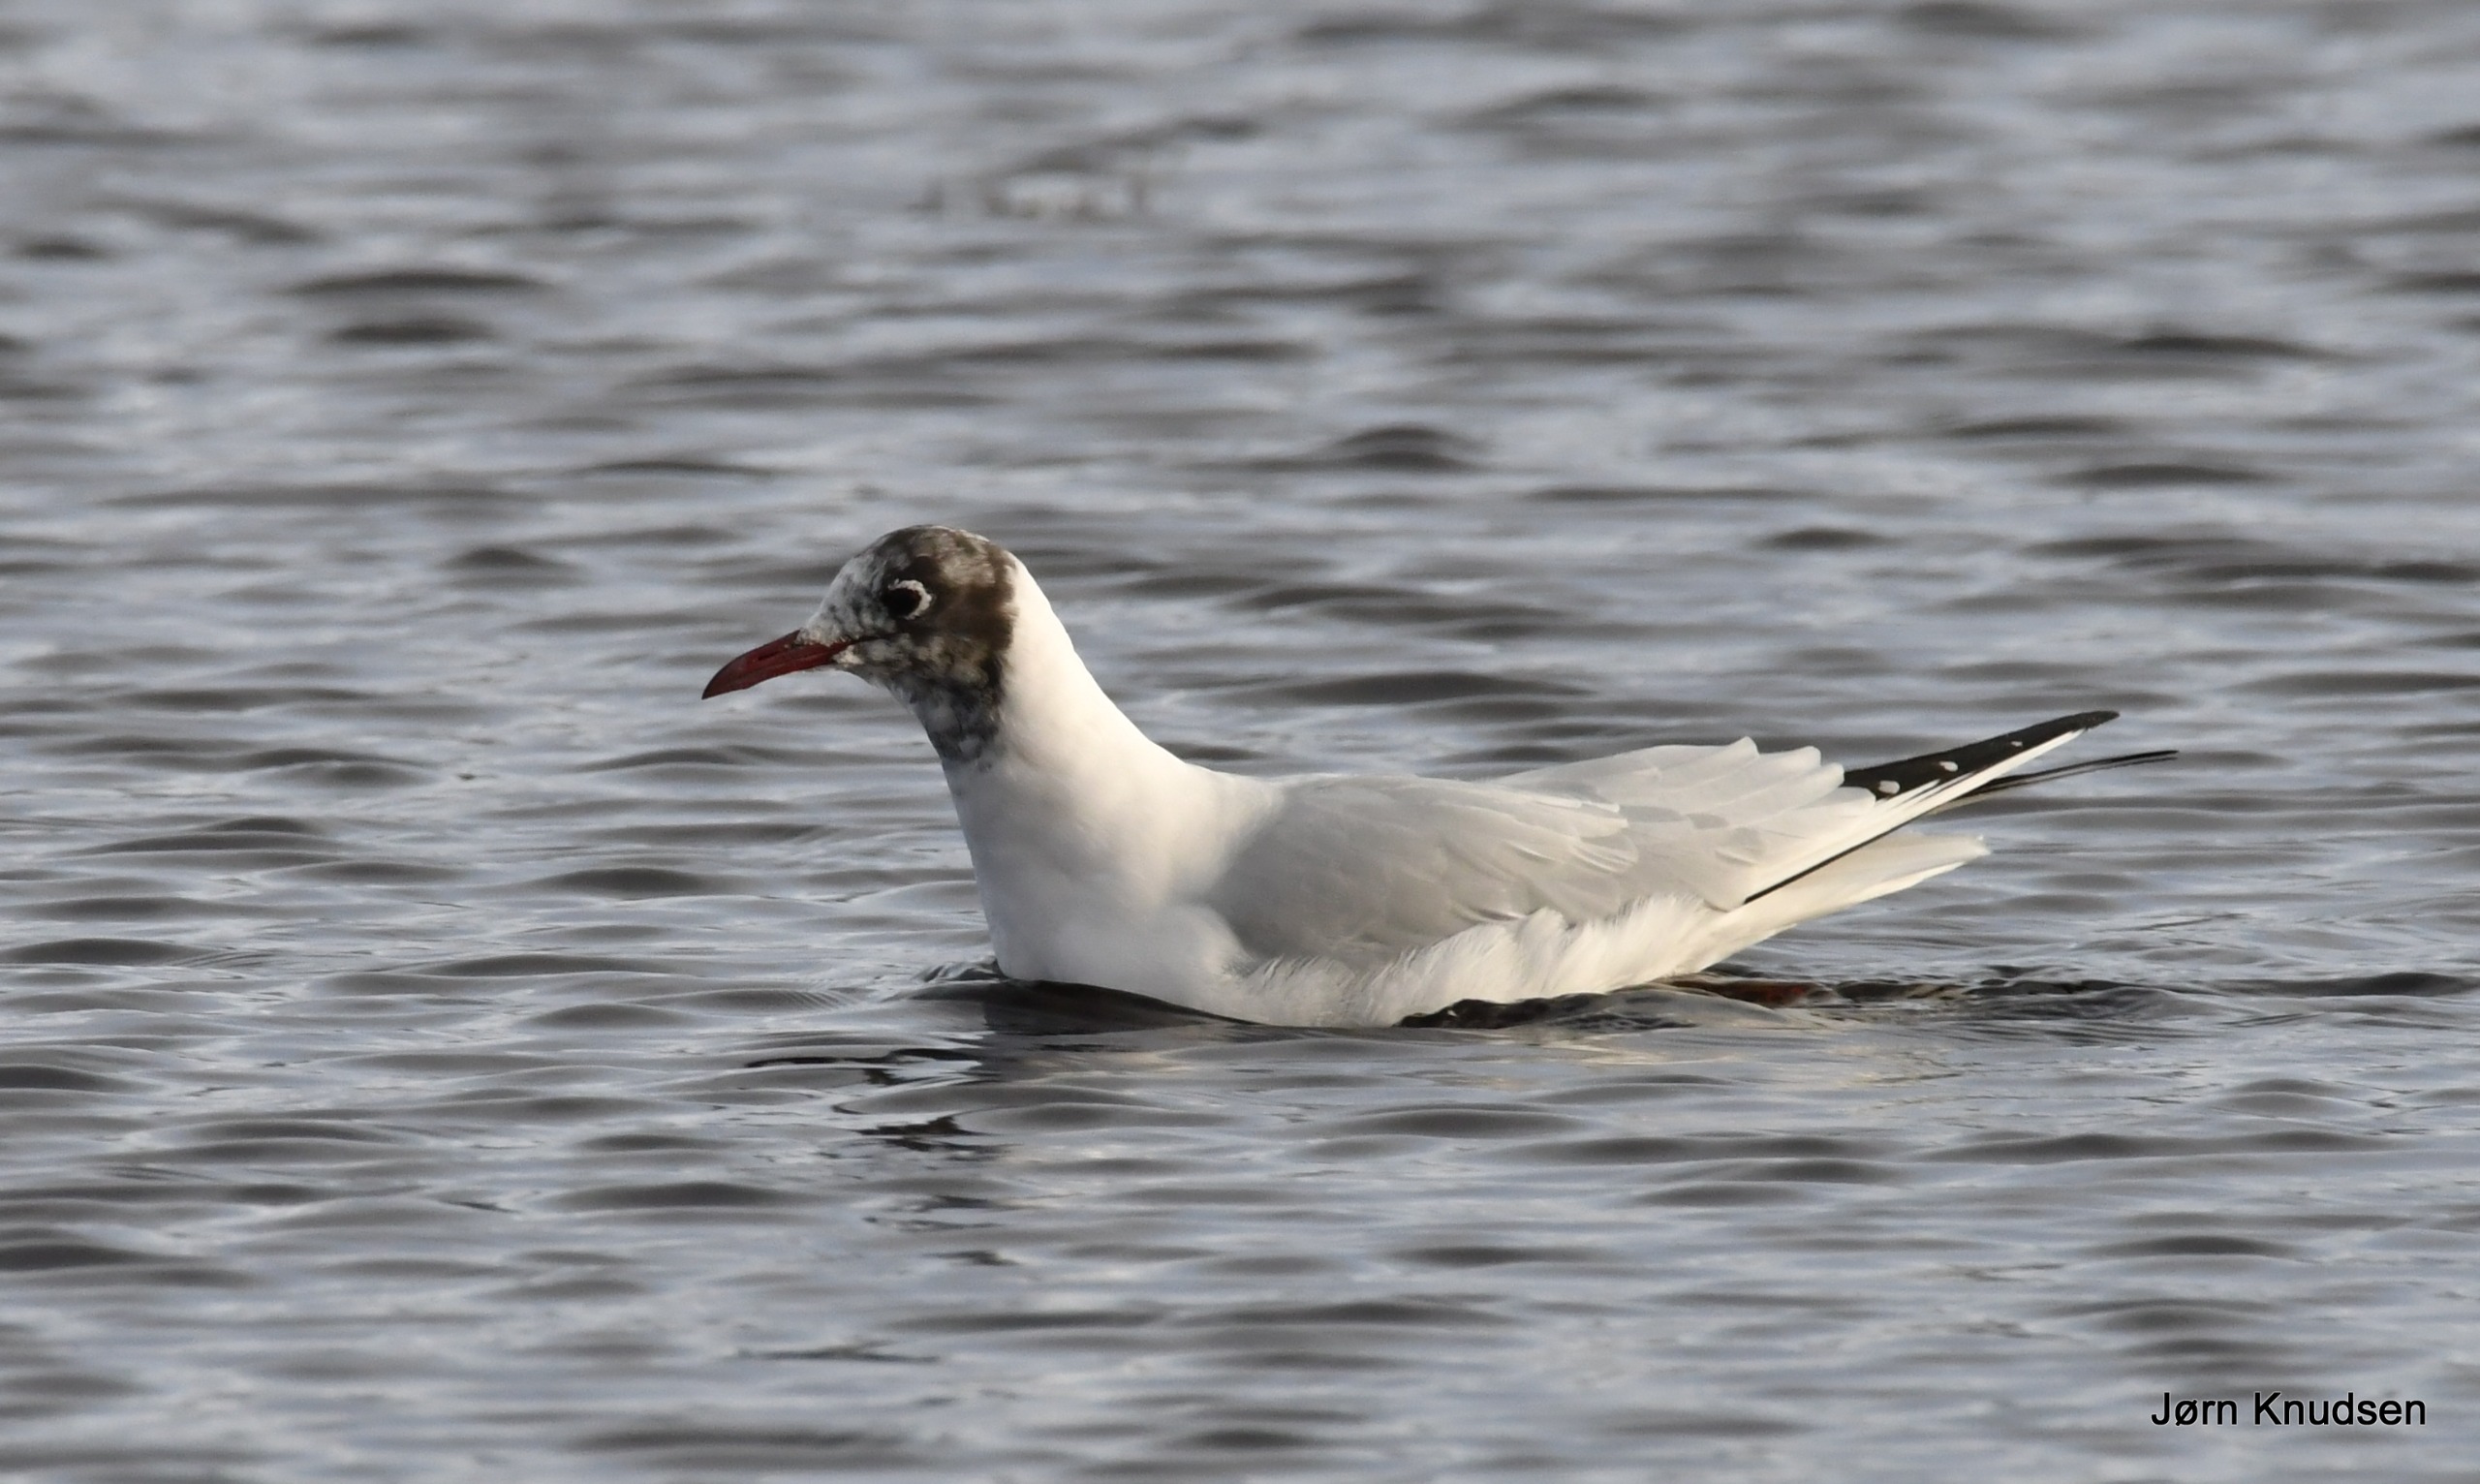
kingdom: Animalia
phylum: Chordata
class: Aves
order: Charadriiformes
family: Laridae
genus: Chroicocephalus
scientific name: Chroicocephalus ridibundus
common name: Hættemåge
